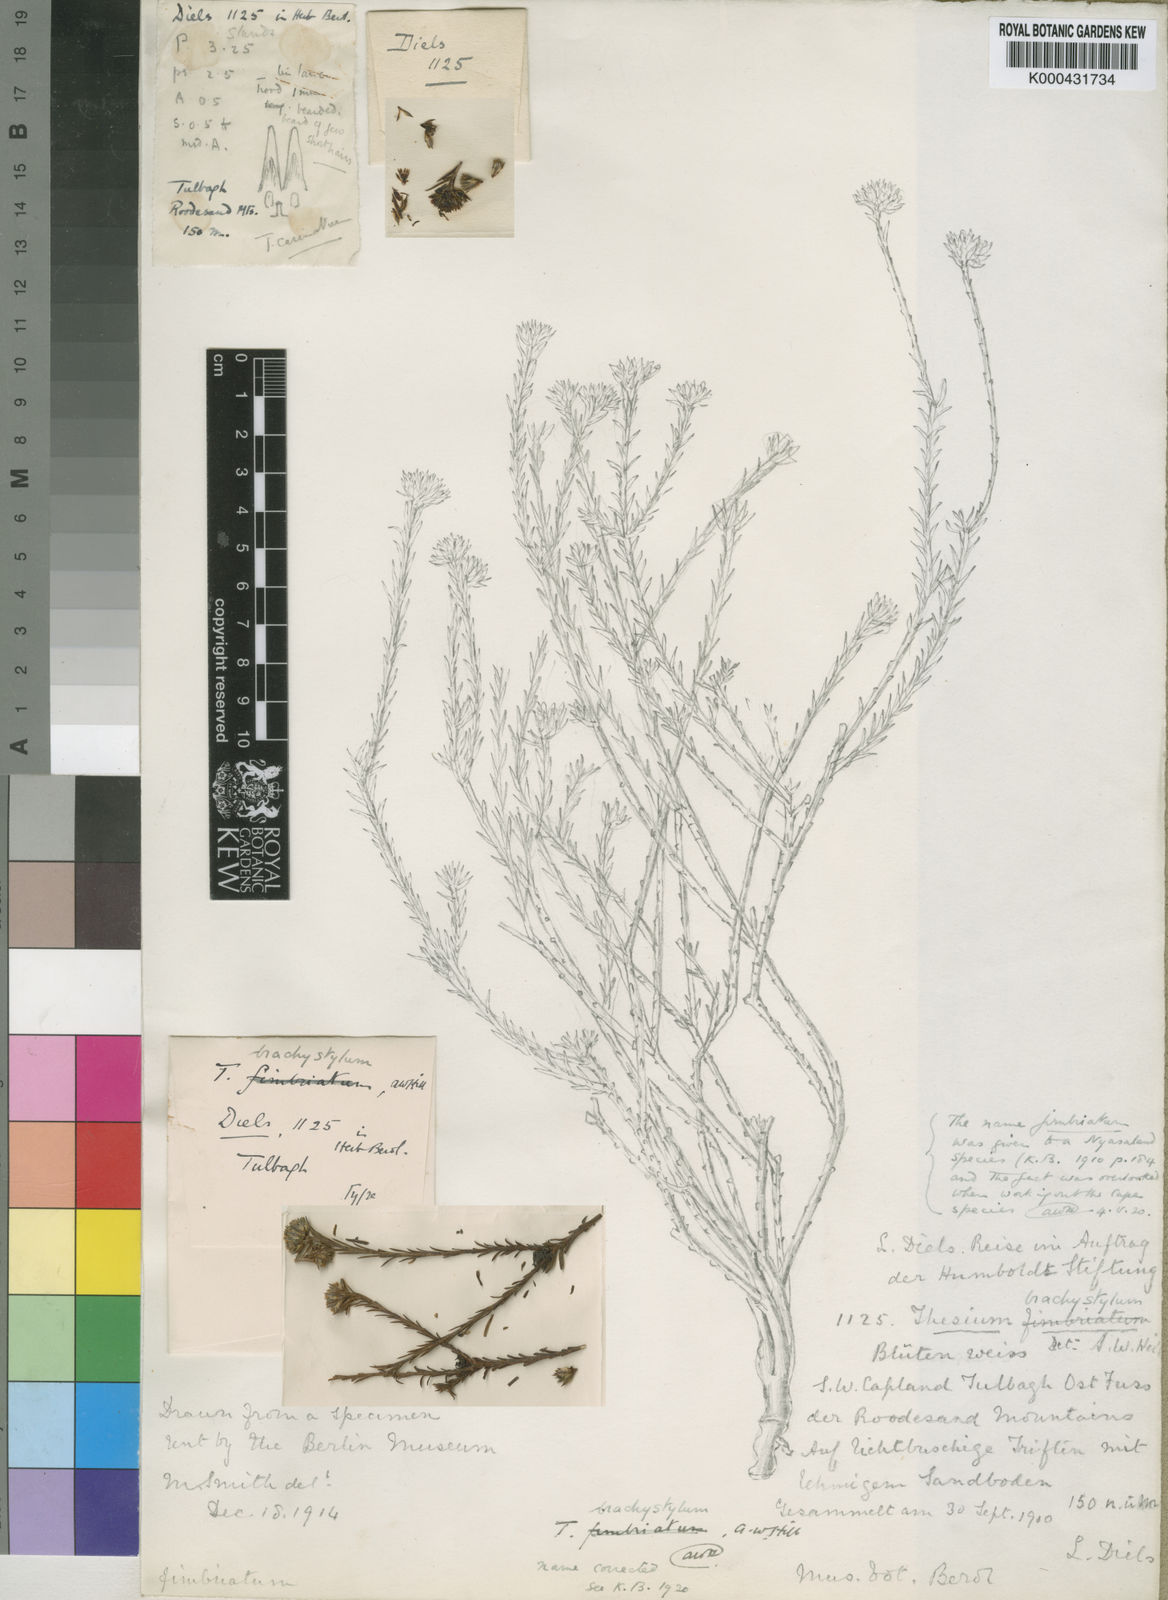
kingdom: Plantae
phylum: Tracheophyta
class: Magnoliopsida
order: Santalales
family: Thesiaceae
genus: Thesium
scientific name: Thesium brachystylum
